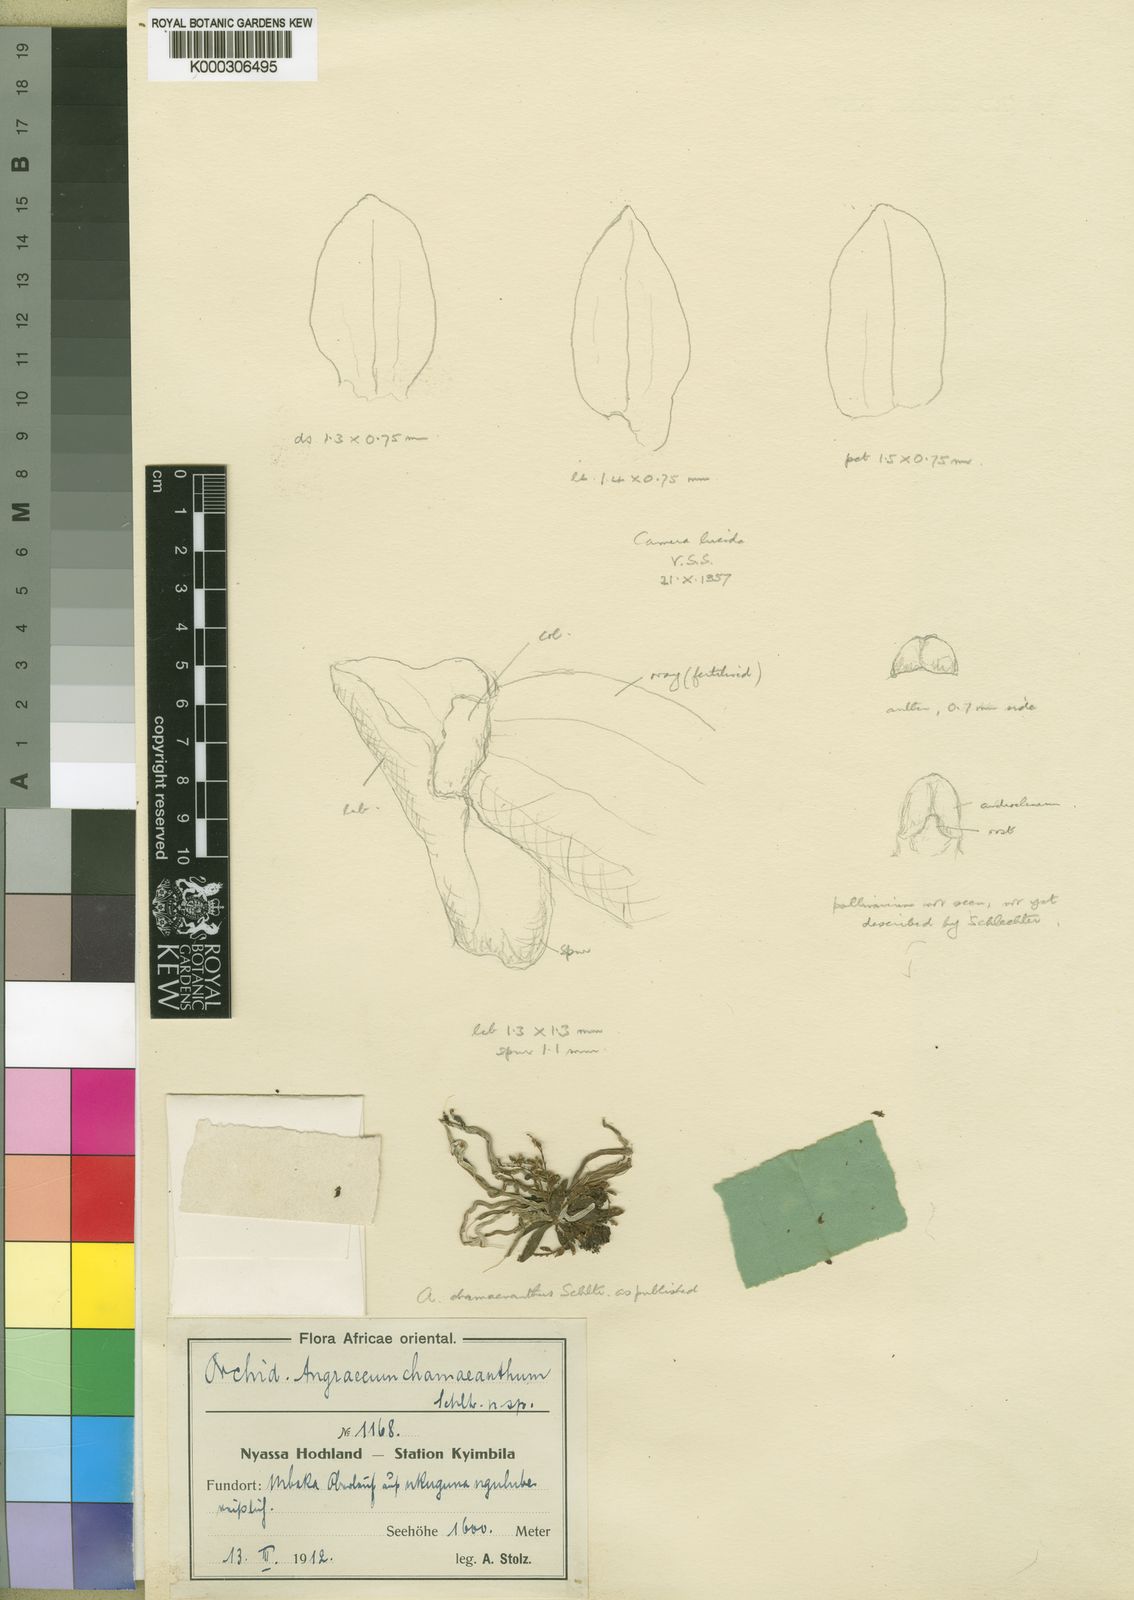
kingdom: Plantae
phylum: Tracheophyta
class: Liliopsida
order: Asparagales
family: Orchidaceae
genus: Angraecum
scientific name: Angraecum chamaeanthus
